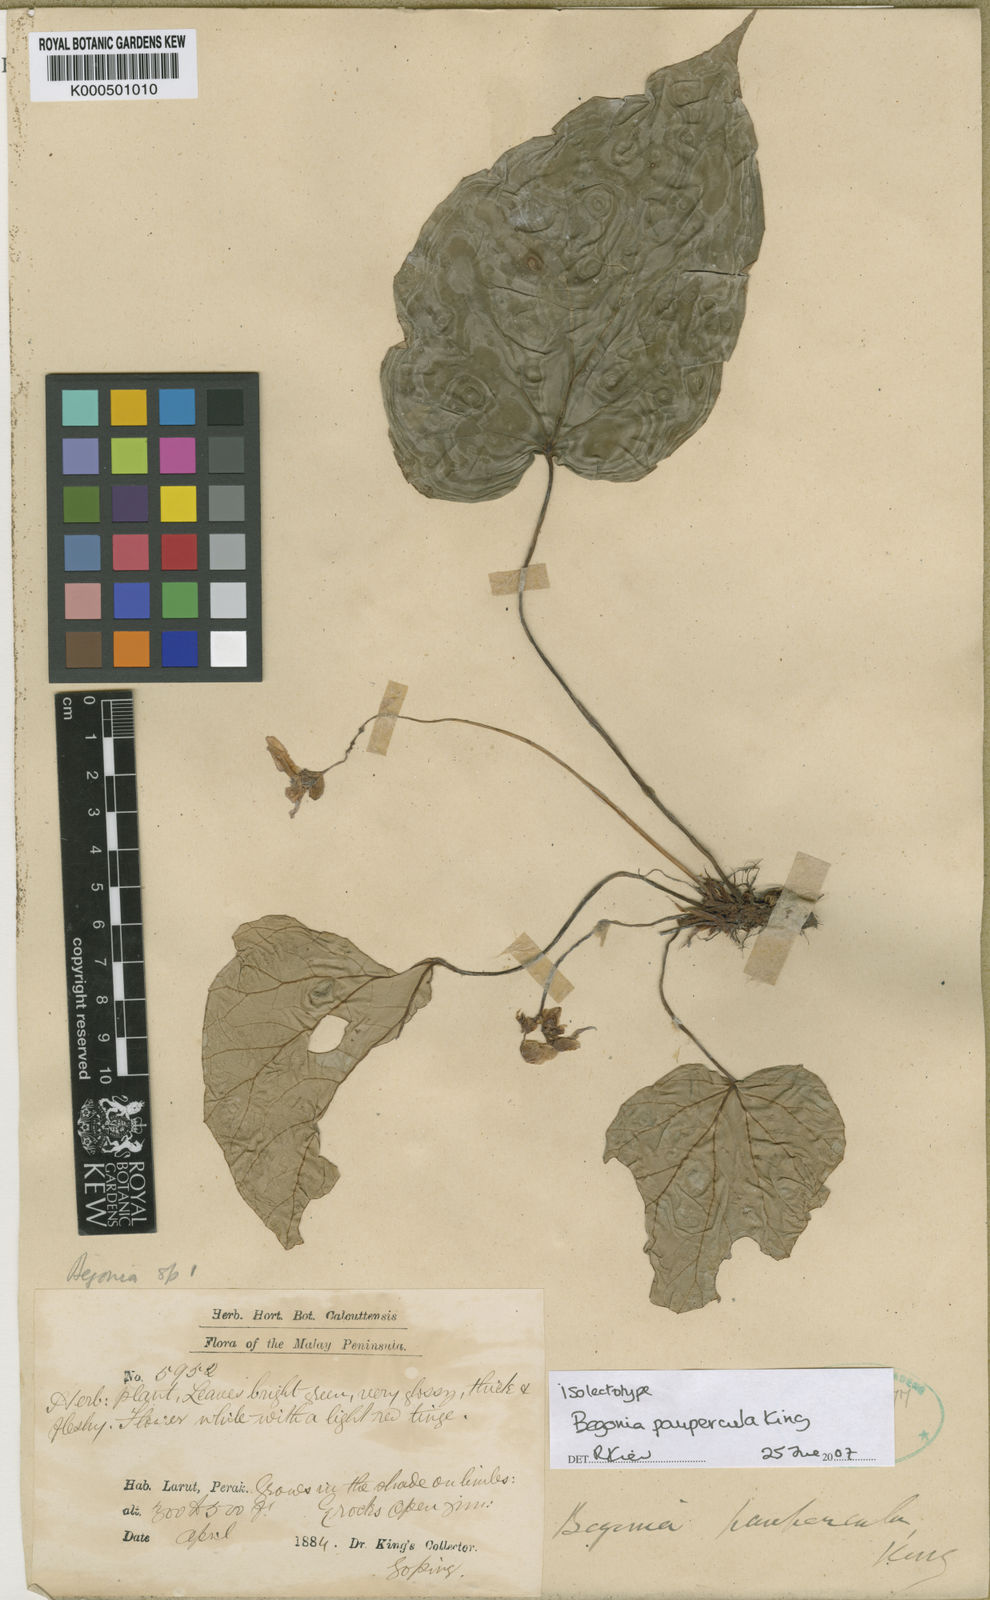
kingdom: Plantae
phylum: Tracheophyta
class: Magnoliopsida
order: Cucurbitales
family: Begoniaceae
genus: Begonia
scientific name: Begonia paupercula
